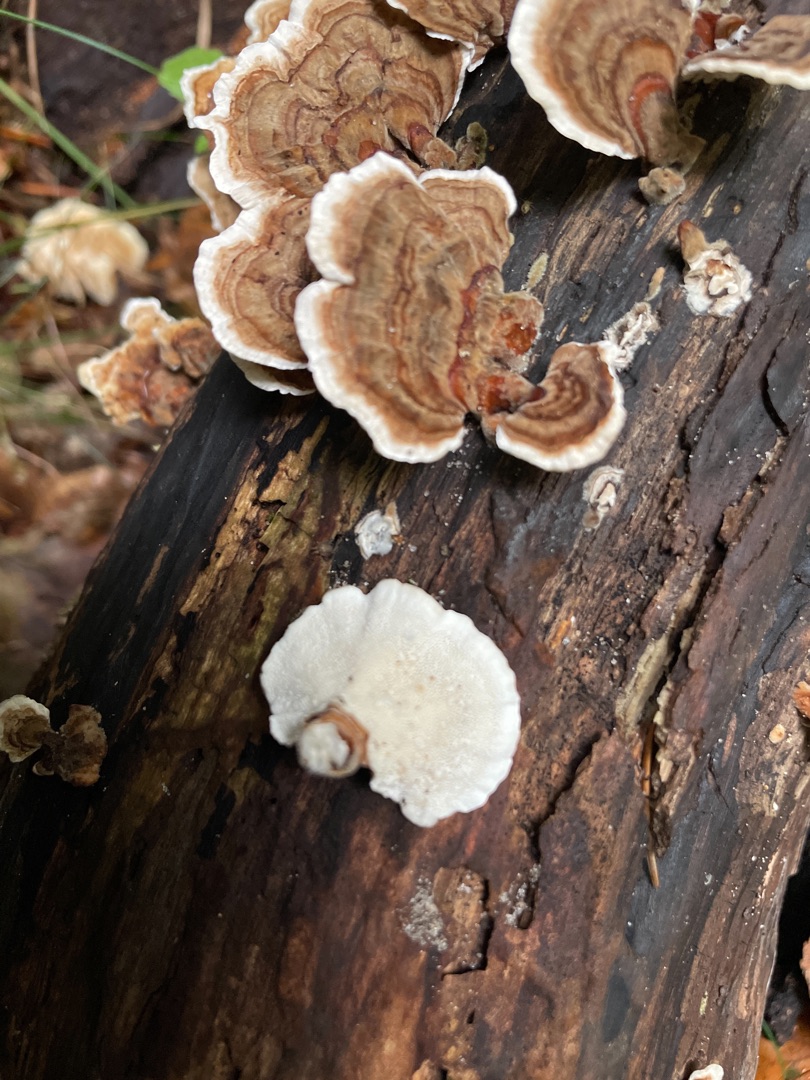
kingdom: Fungi
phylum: Basidiomycota
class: Agaricomycetes
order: Polyporales
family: Polyporaceae
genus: Trametes
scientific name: Trametes versicolor
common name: Broget læderporesvamp
